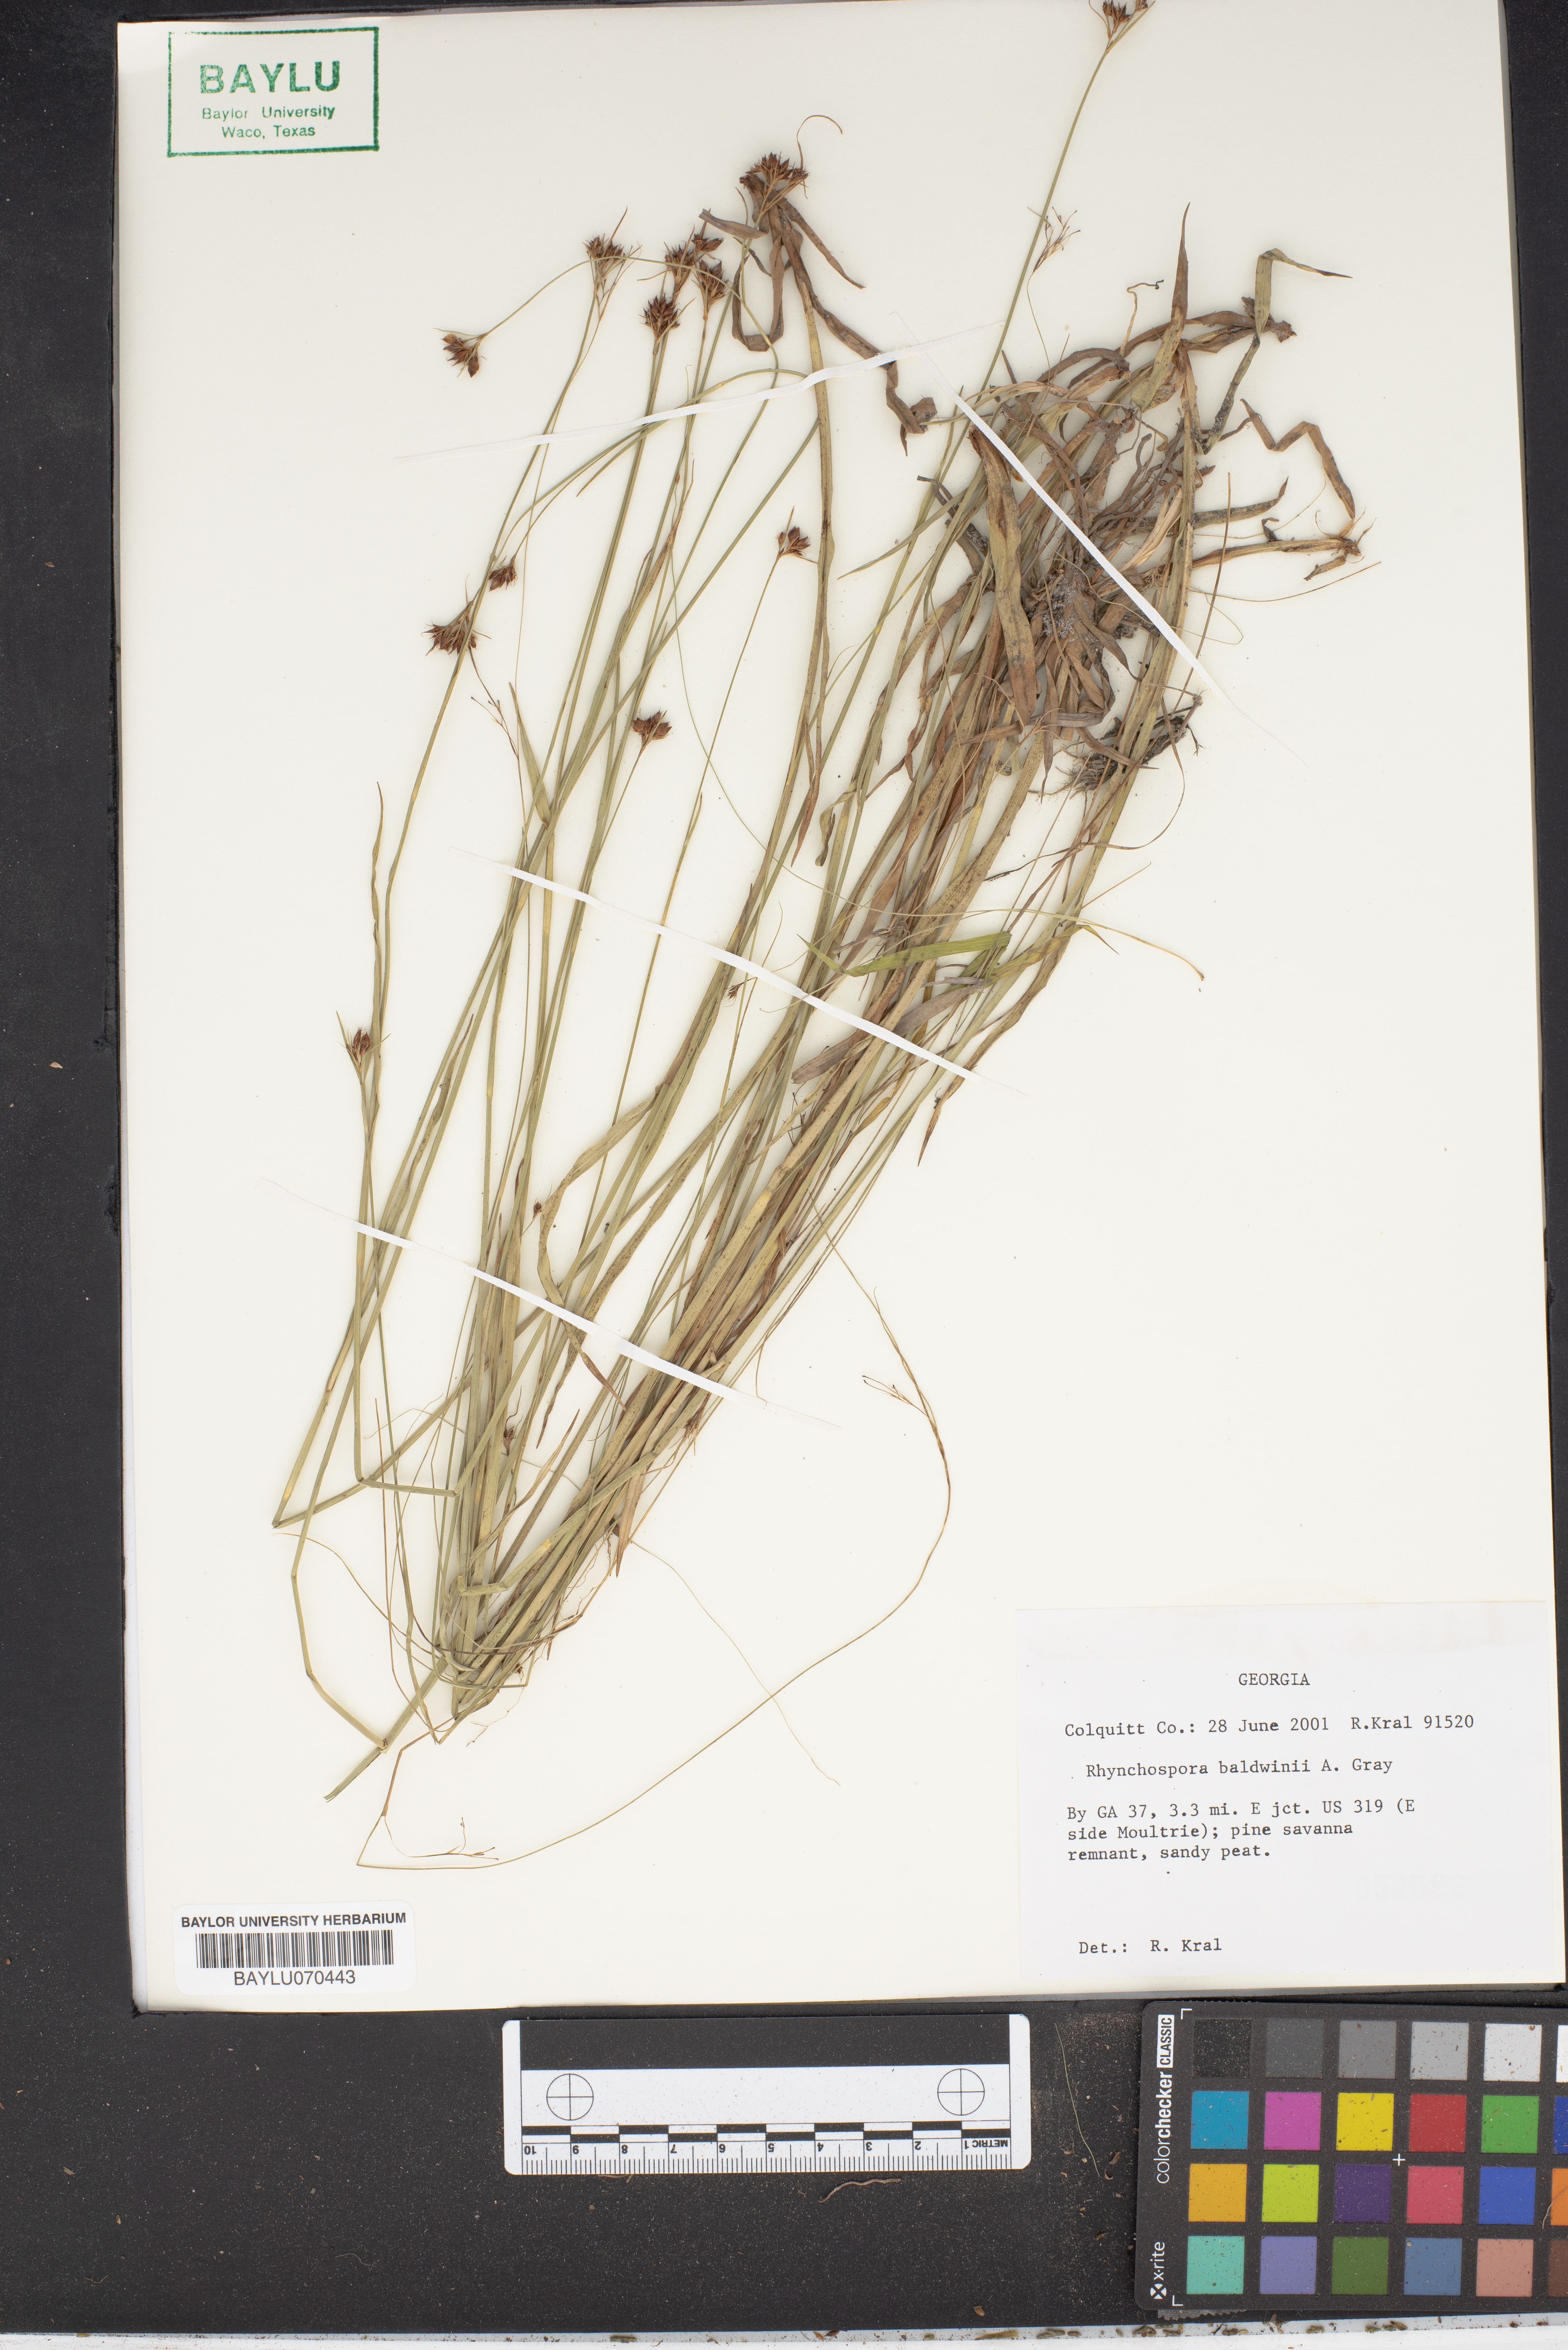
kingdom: Plantae
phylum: Tracheophyta
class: Liliopsida
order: Poales
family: Cyperaceae
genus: Rhynchospora
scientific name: Rhynchospora baldwinii
